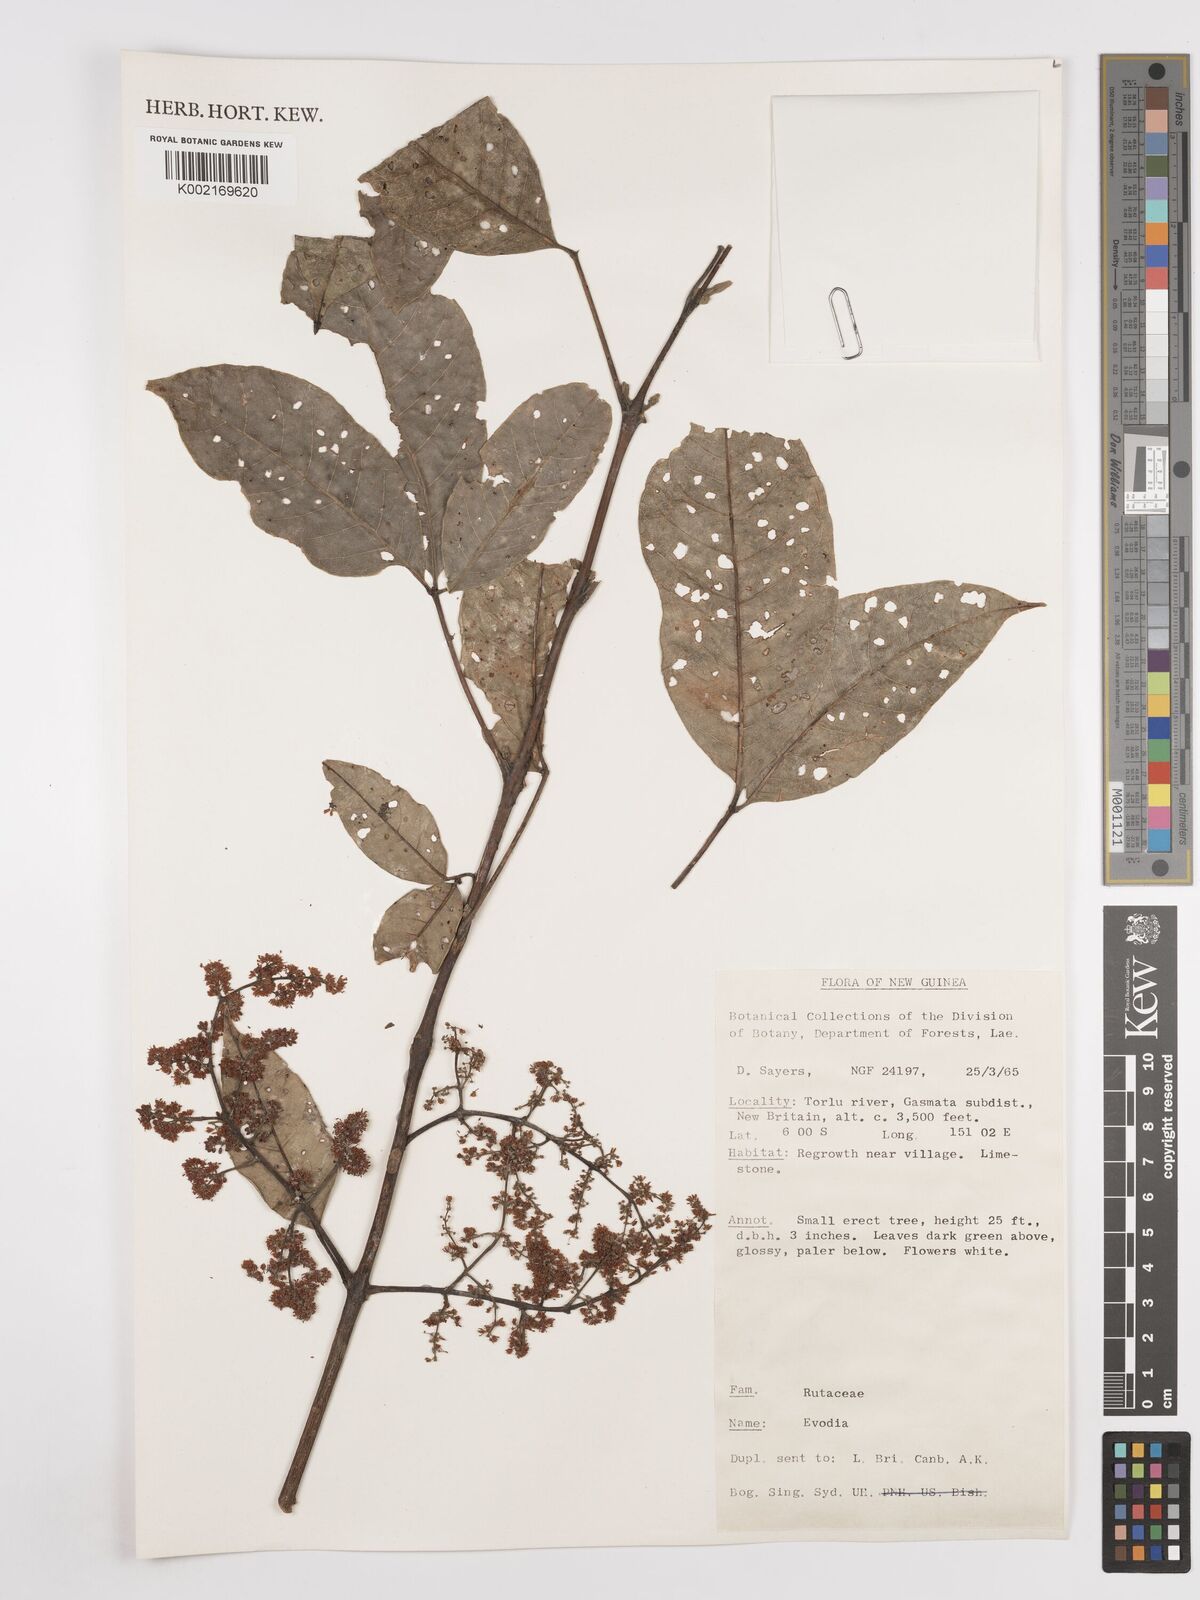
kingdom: Plantae
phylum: Tracheophyta
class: Magnoliopsida
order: Sapindales
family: Rutaceae
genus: Euodia
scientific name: Euodia
